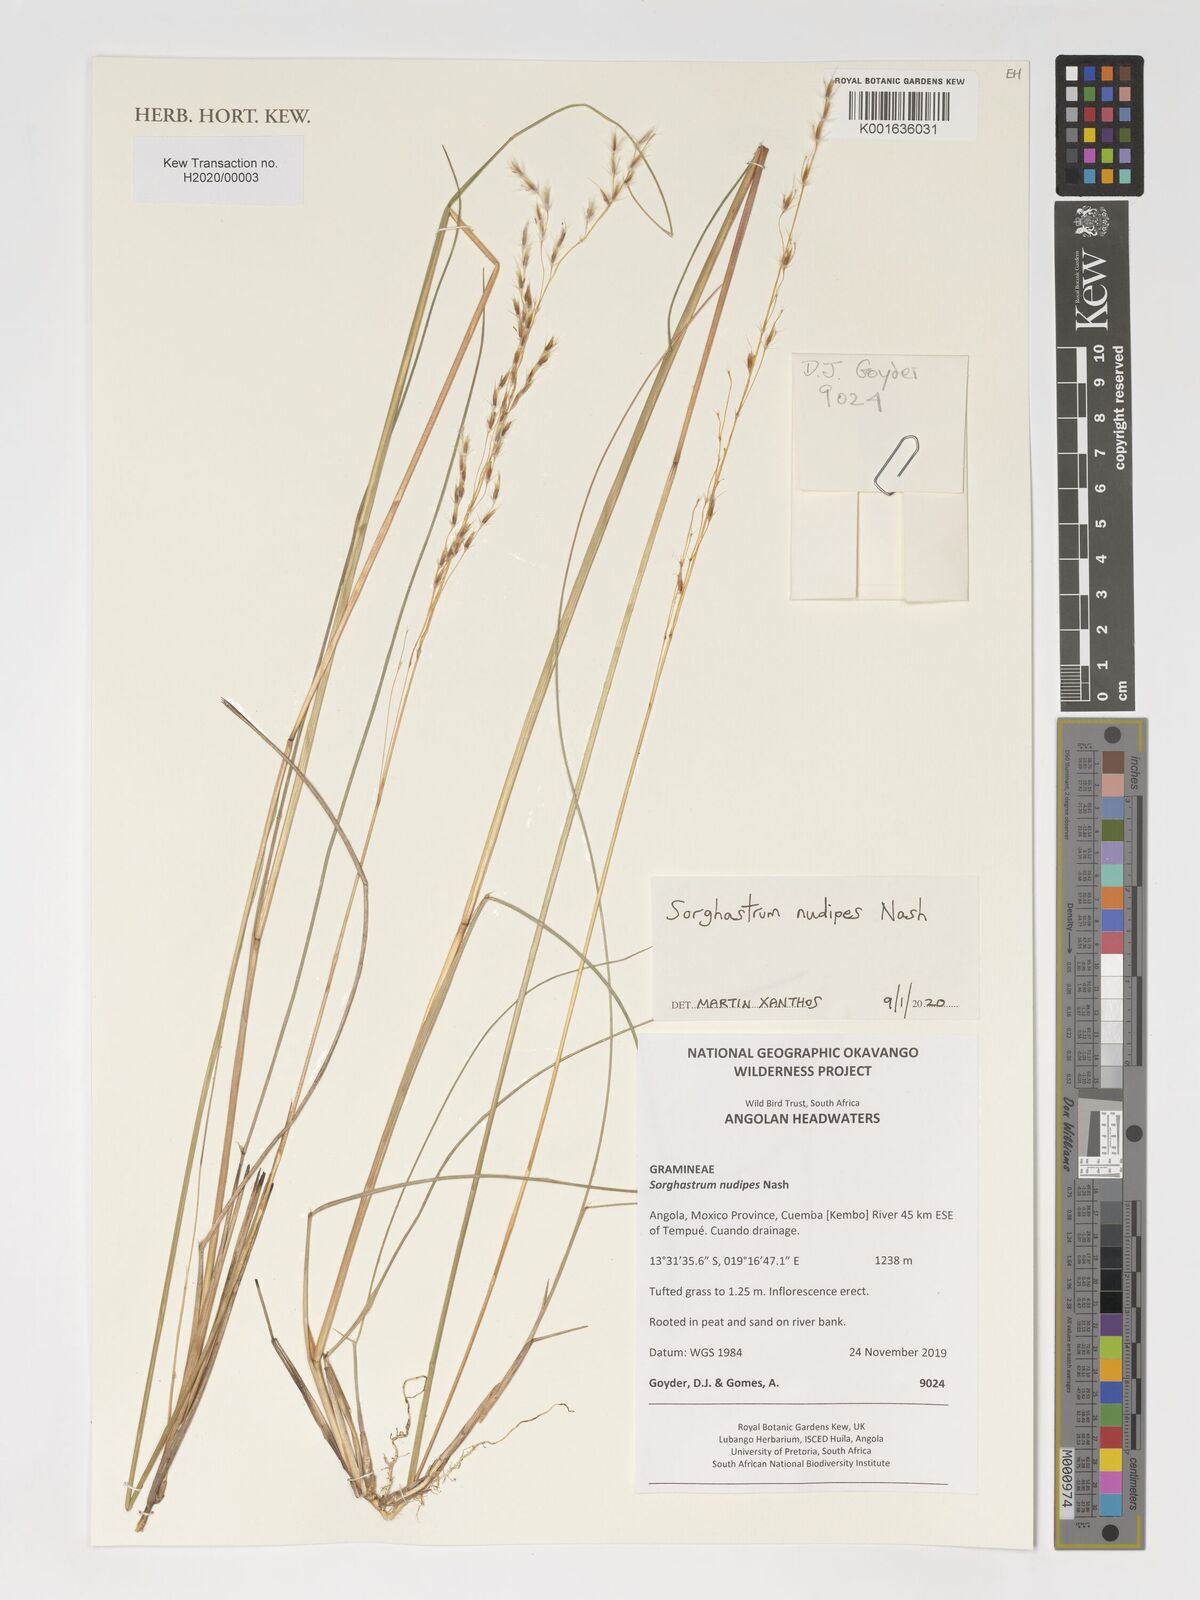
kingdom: Plantae
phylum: Tracheophyta
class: Liliopsida
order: Poales
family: Poaceae
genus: Sorghastrum
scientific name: Sorghastrum nudipes
